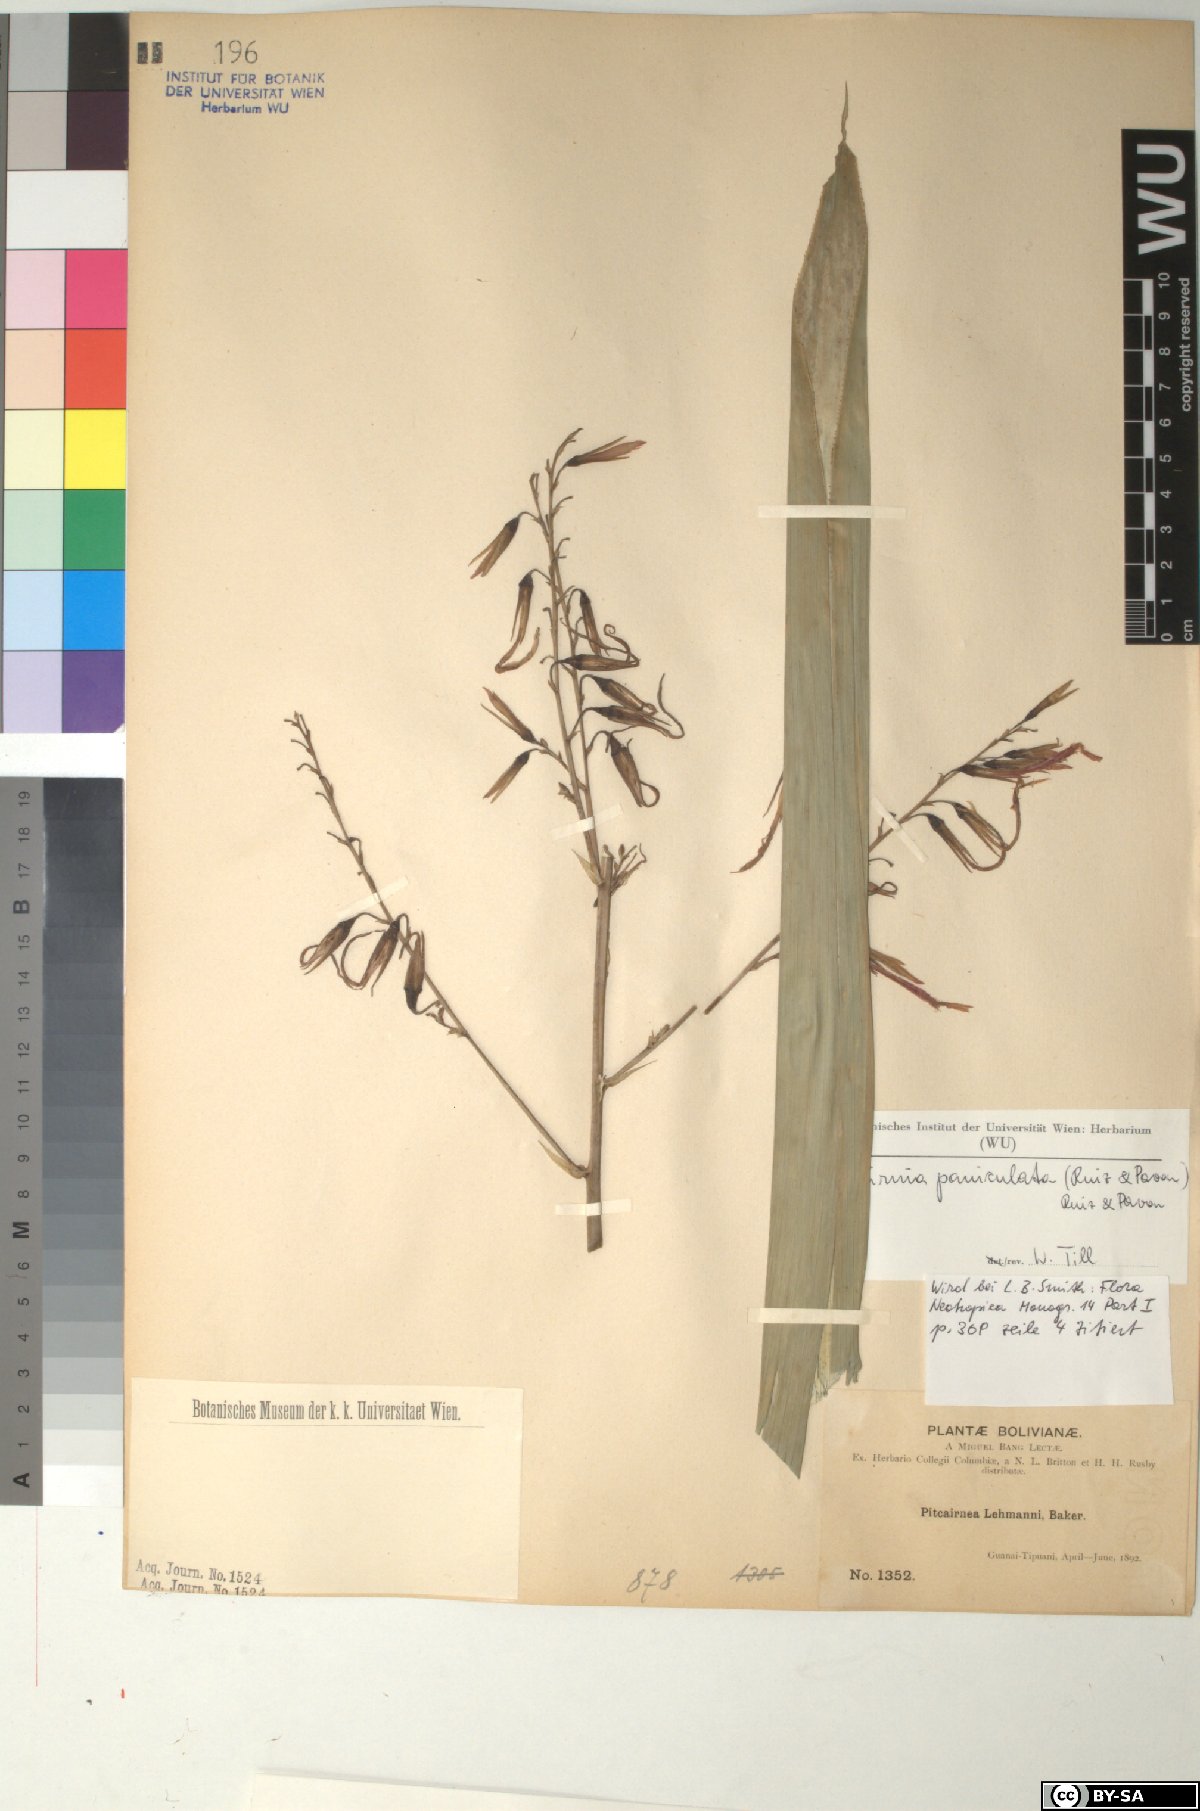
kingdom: Plantae
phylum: Tracheophyta
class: Liliopsida
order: Poales
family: Bromeliaceae
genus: Pitcairnia
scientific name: Pitcairnia paniculata
